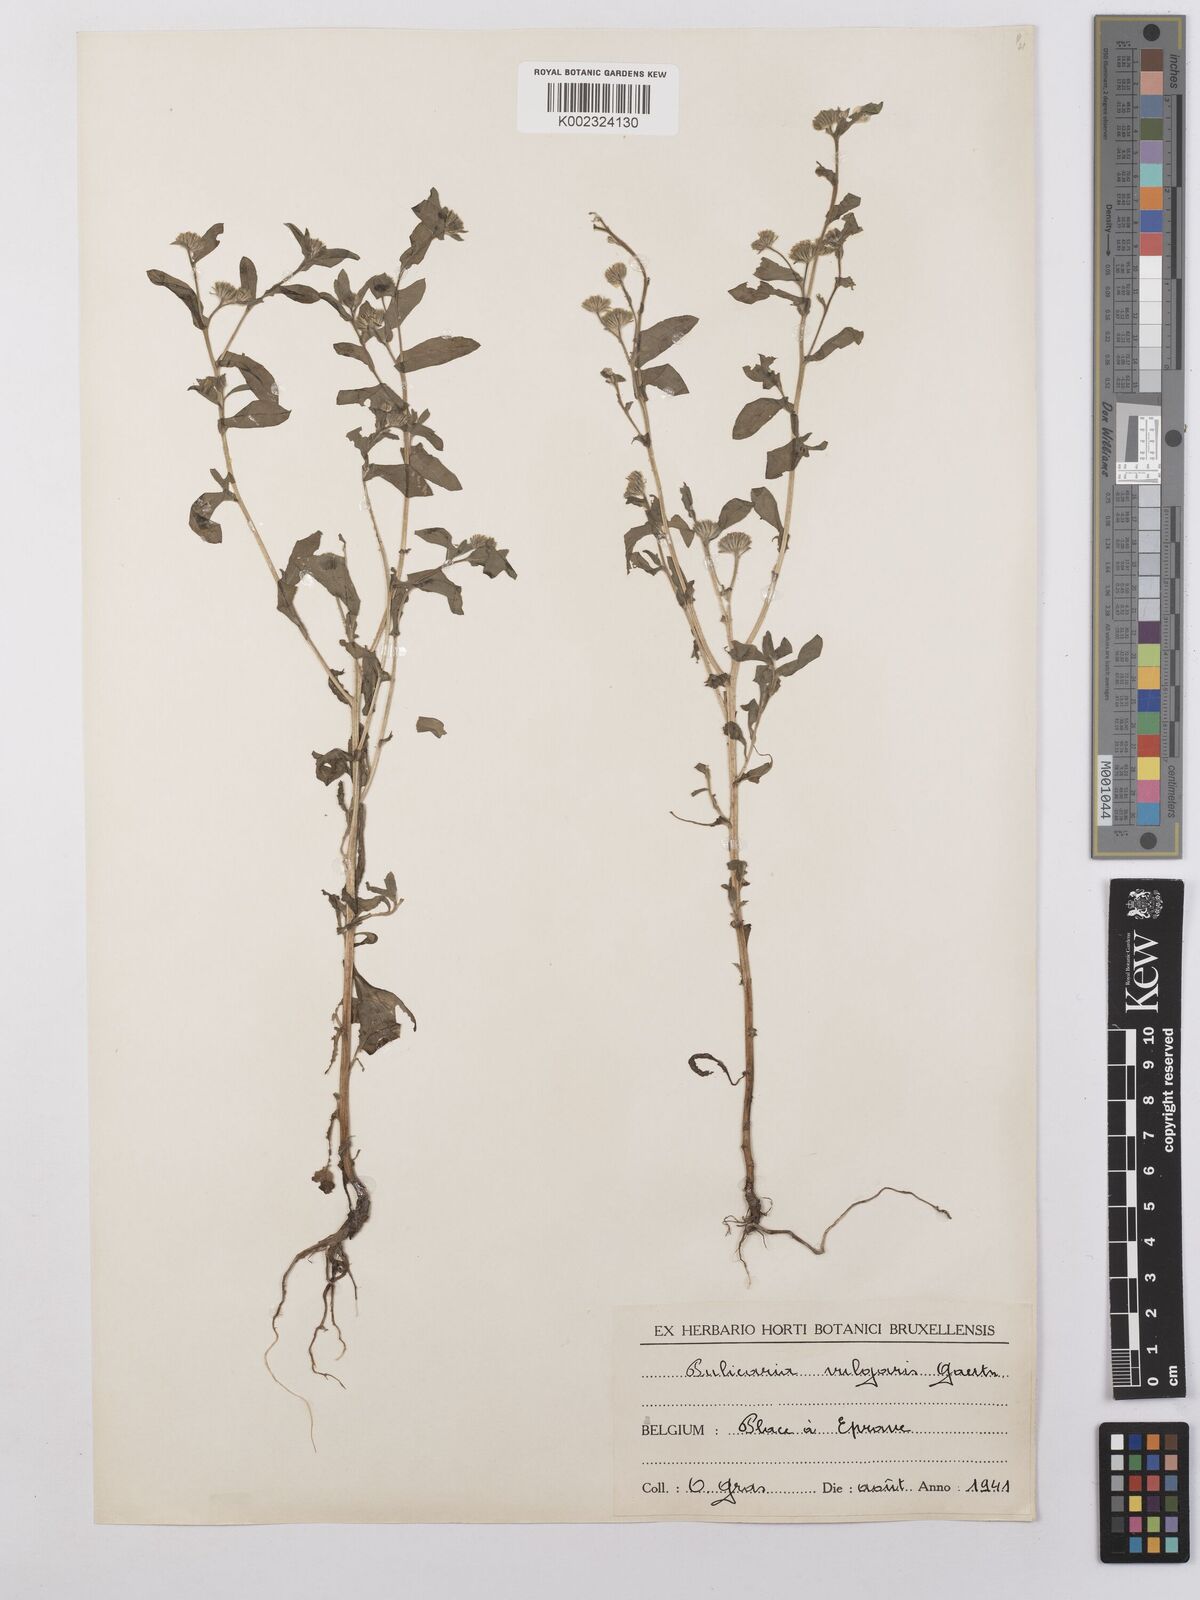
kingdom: Plantae
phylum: Tracheophyta
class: Magnoliopsida
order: Asterales
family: Asteraceae
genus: Pulicaria
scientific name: Pulicaria vulgaris
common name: Small fleabane
